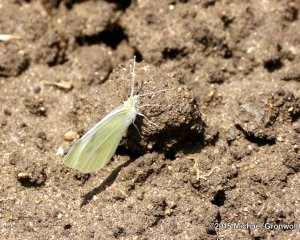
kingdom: Animalia
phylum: Arthropoda
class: Insecta
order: Lepidoptera
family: Pieridae
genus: Pieris
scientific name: Pieris rapae
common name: Cabbage White
